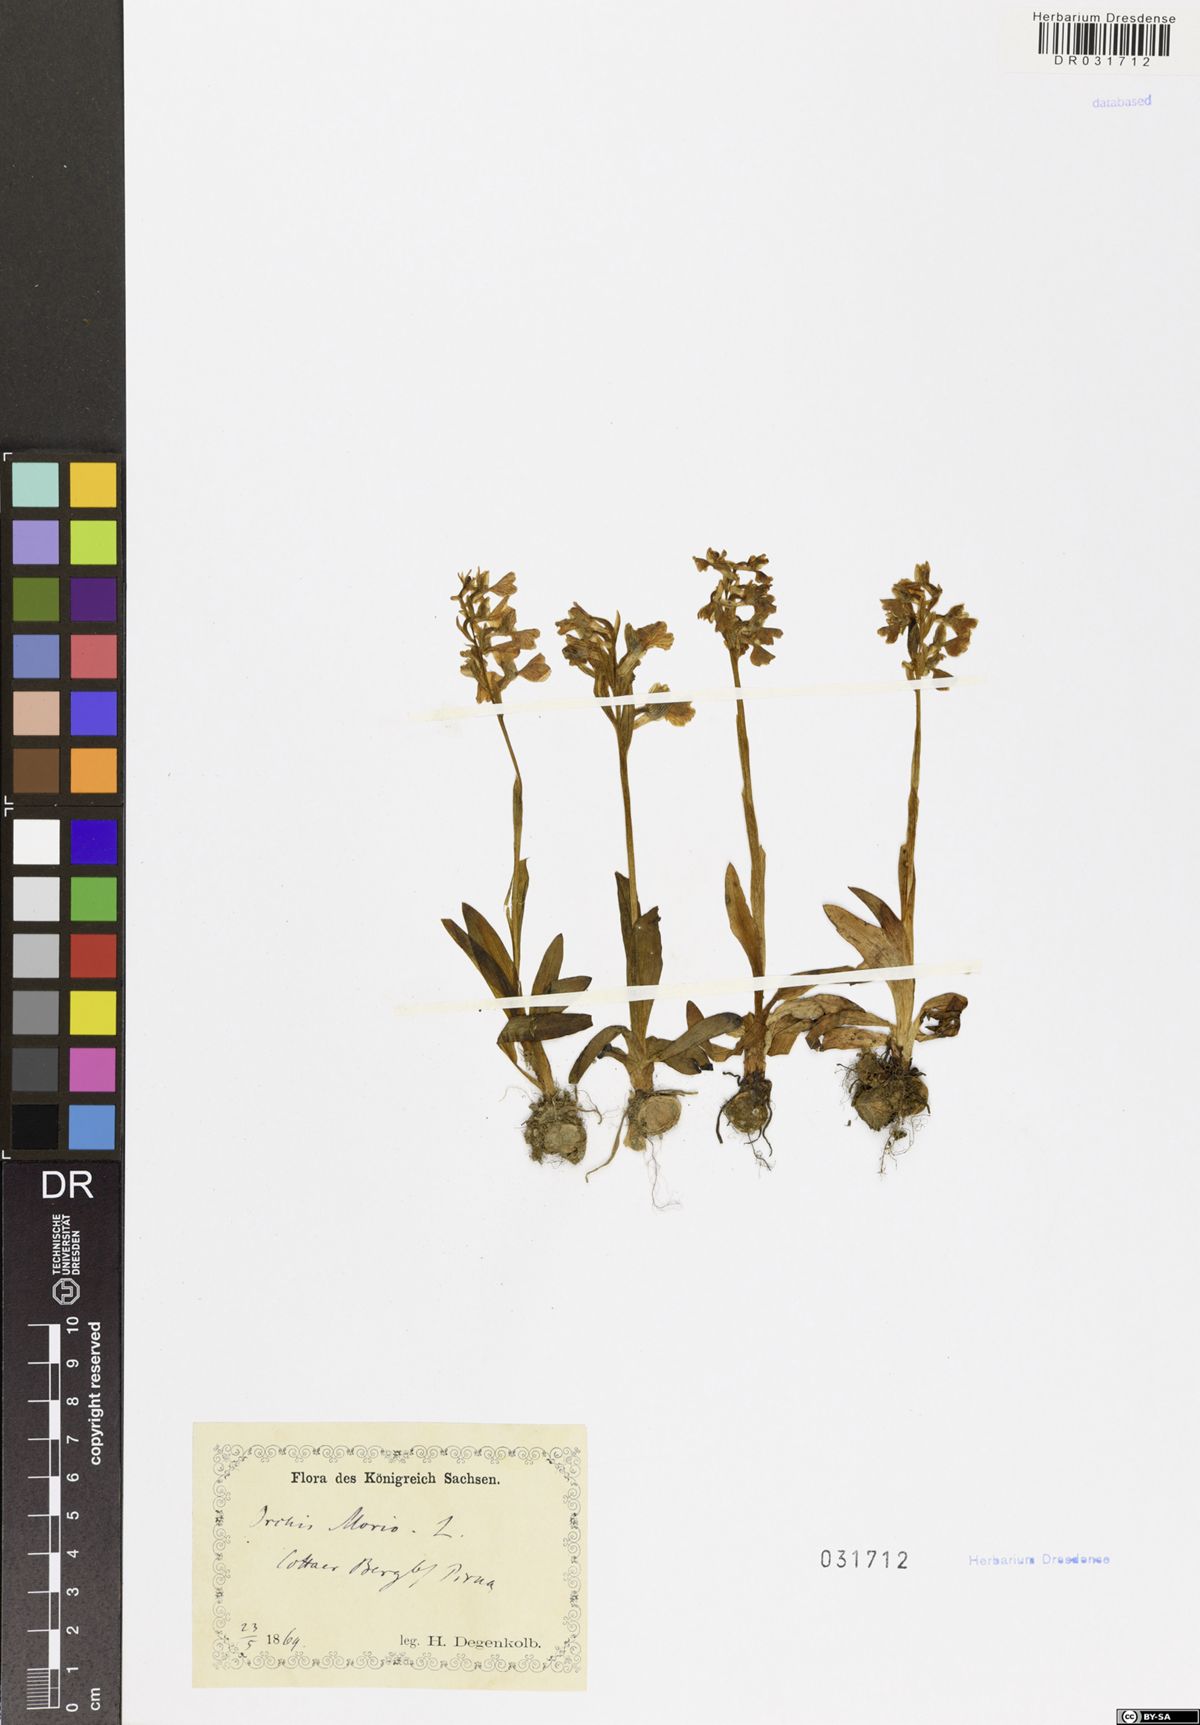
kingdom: Plantae
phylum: Tracheophyta
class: Liliopsida
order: Asparagales
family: Orchidaceae
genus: Anacamptis
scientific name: Anacamptis morio
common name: Green-winged orchid
